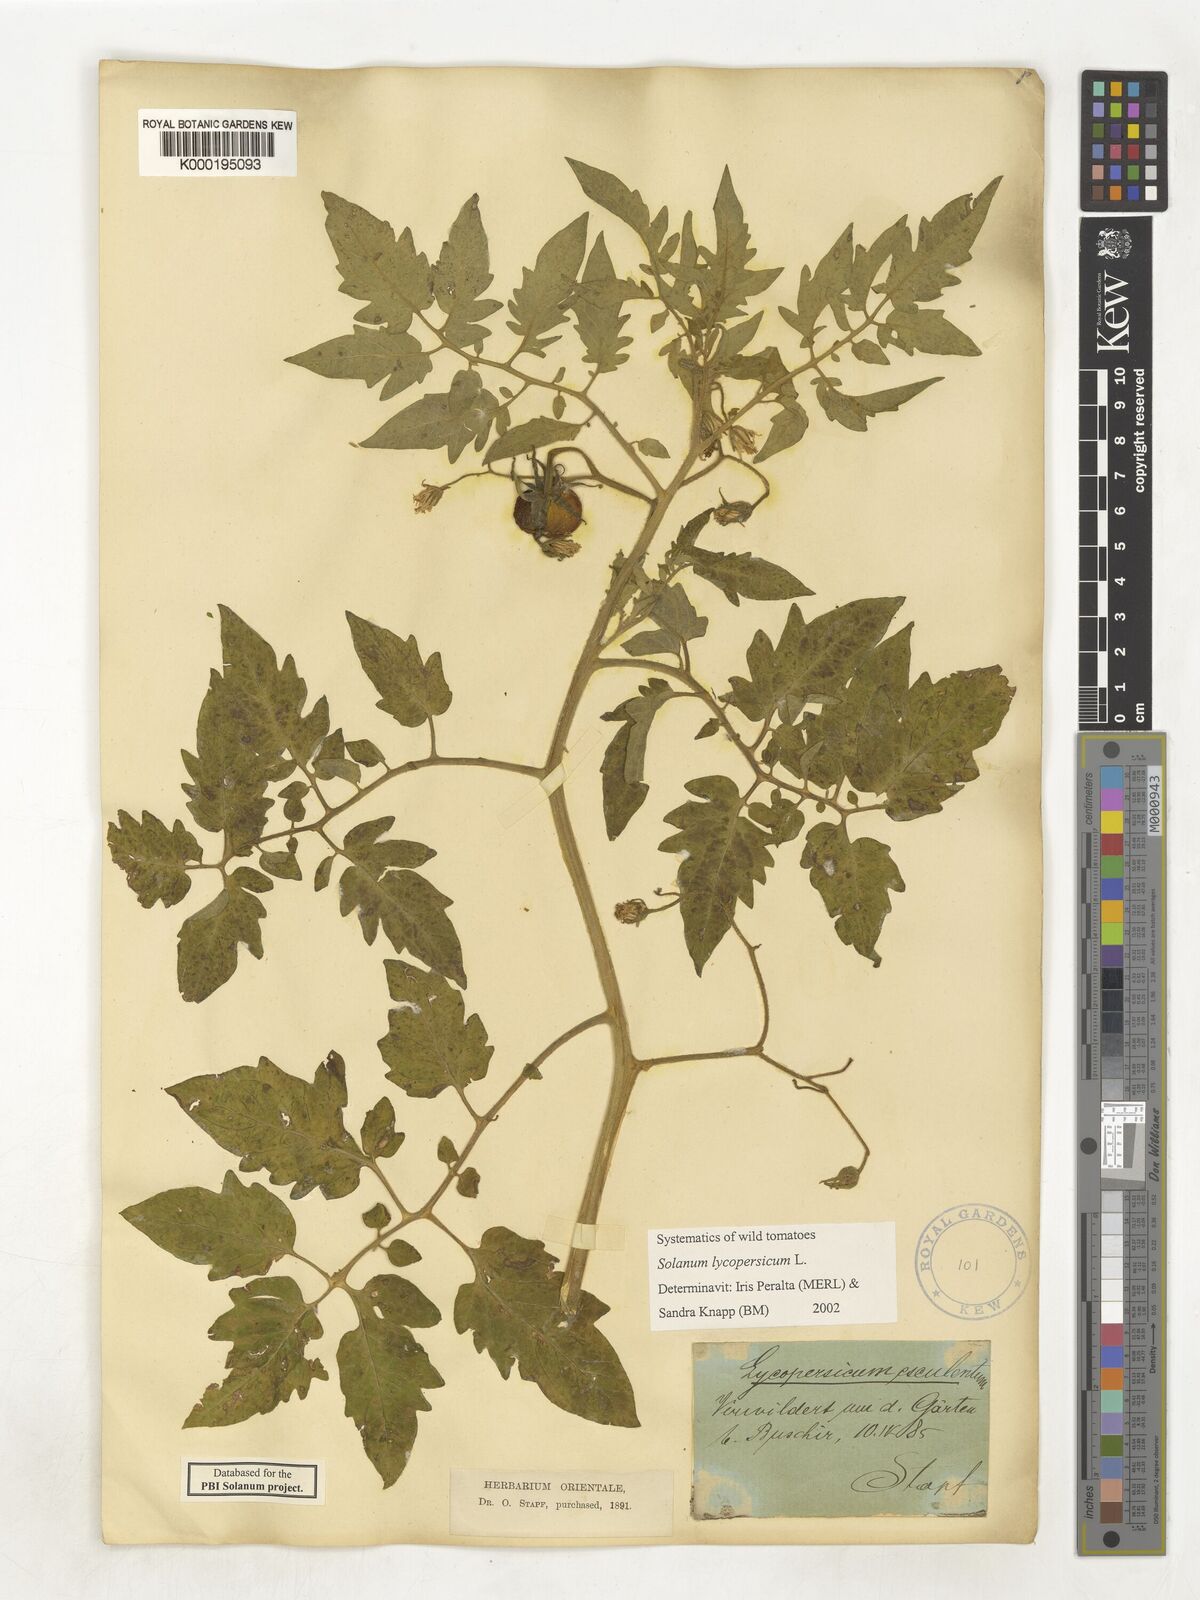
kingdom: Plantae
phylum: Tracheophyta
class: Magnoliopsida
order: Solanales
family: Solanaceae
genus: Solanum
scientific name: Solanum lycopersicum
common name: Garden tomato
